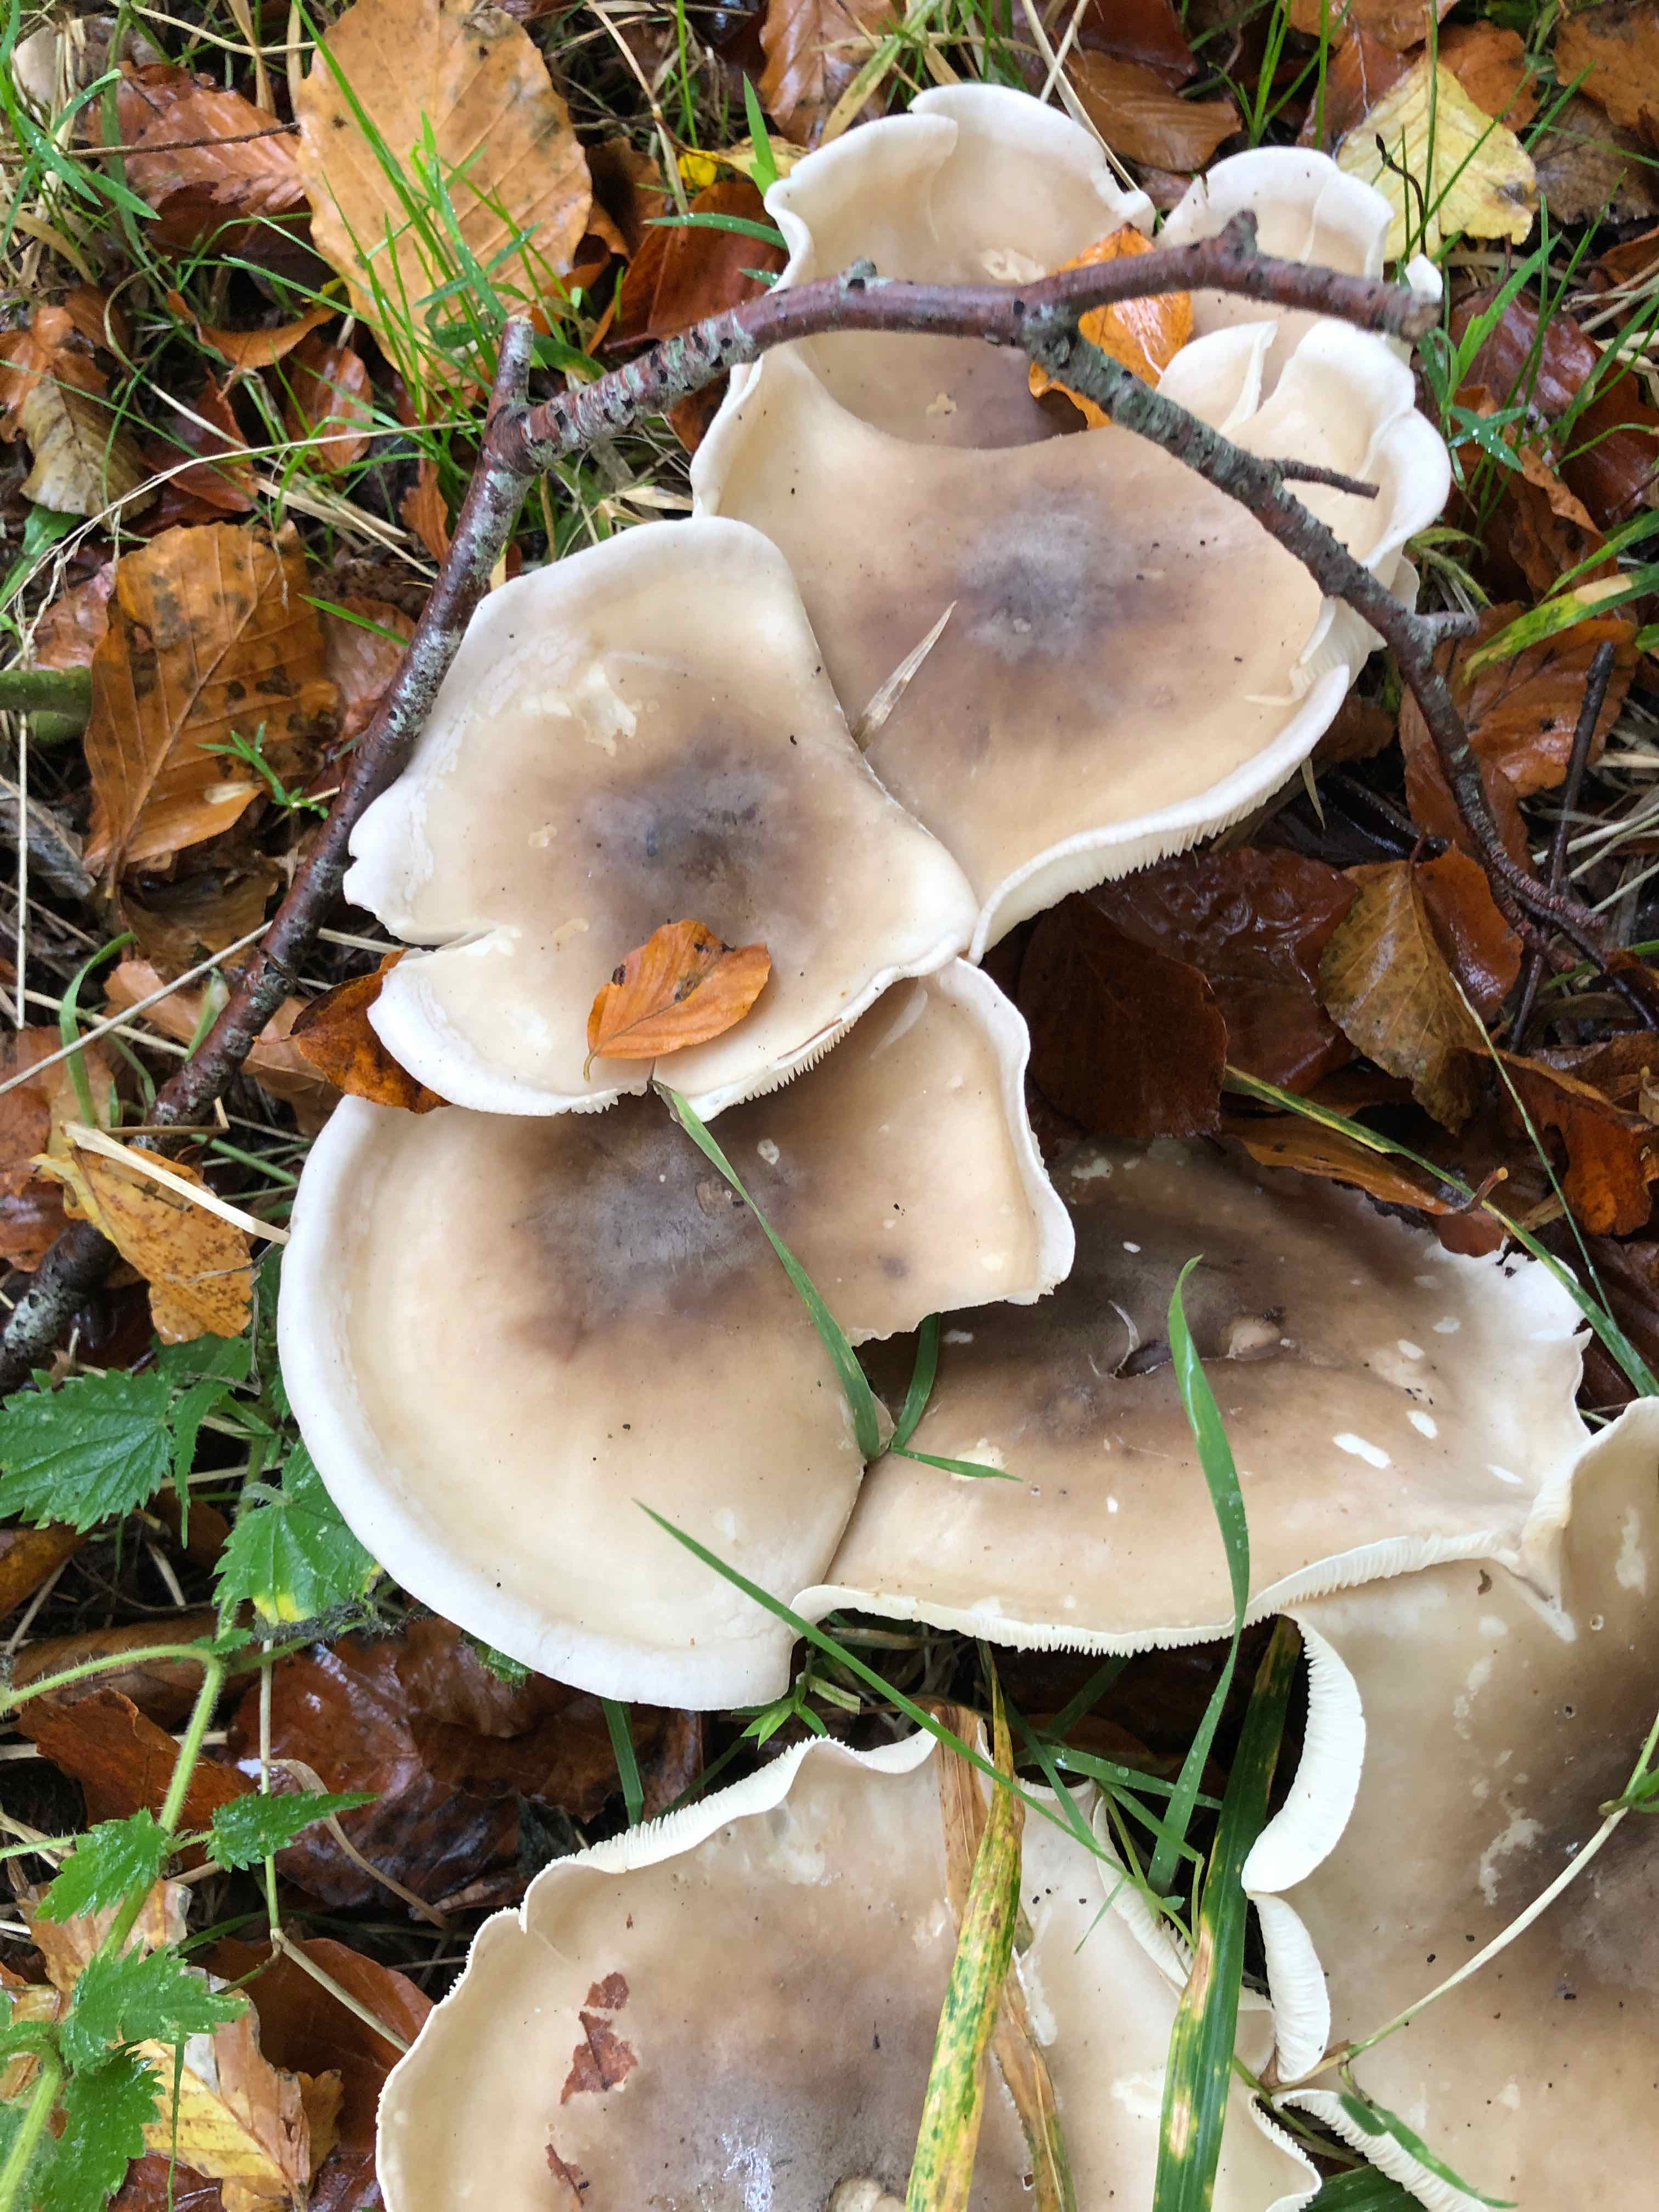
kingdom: Fungi
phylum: Basidiomycota
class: Agaricomycetes
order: Agaricales
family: Tricholomataceae
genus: Clitocybe
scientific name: Clitocybe nebularis
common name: tåge-tragthat
